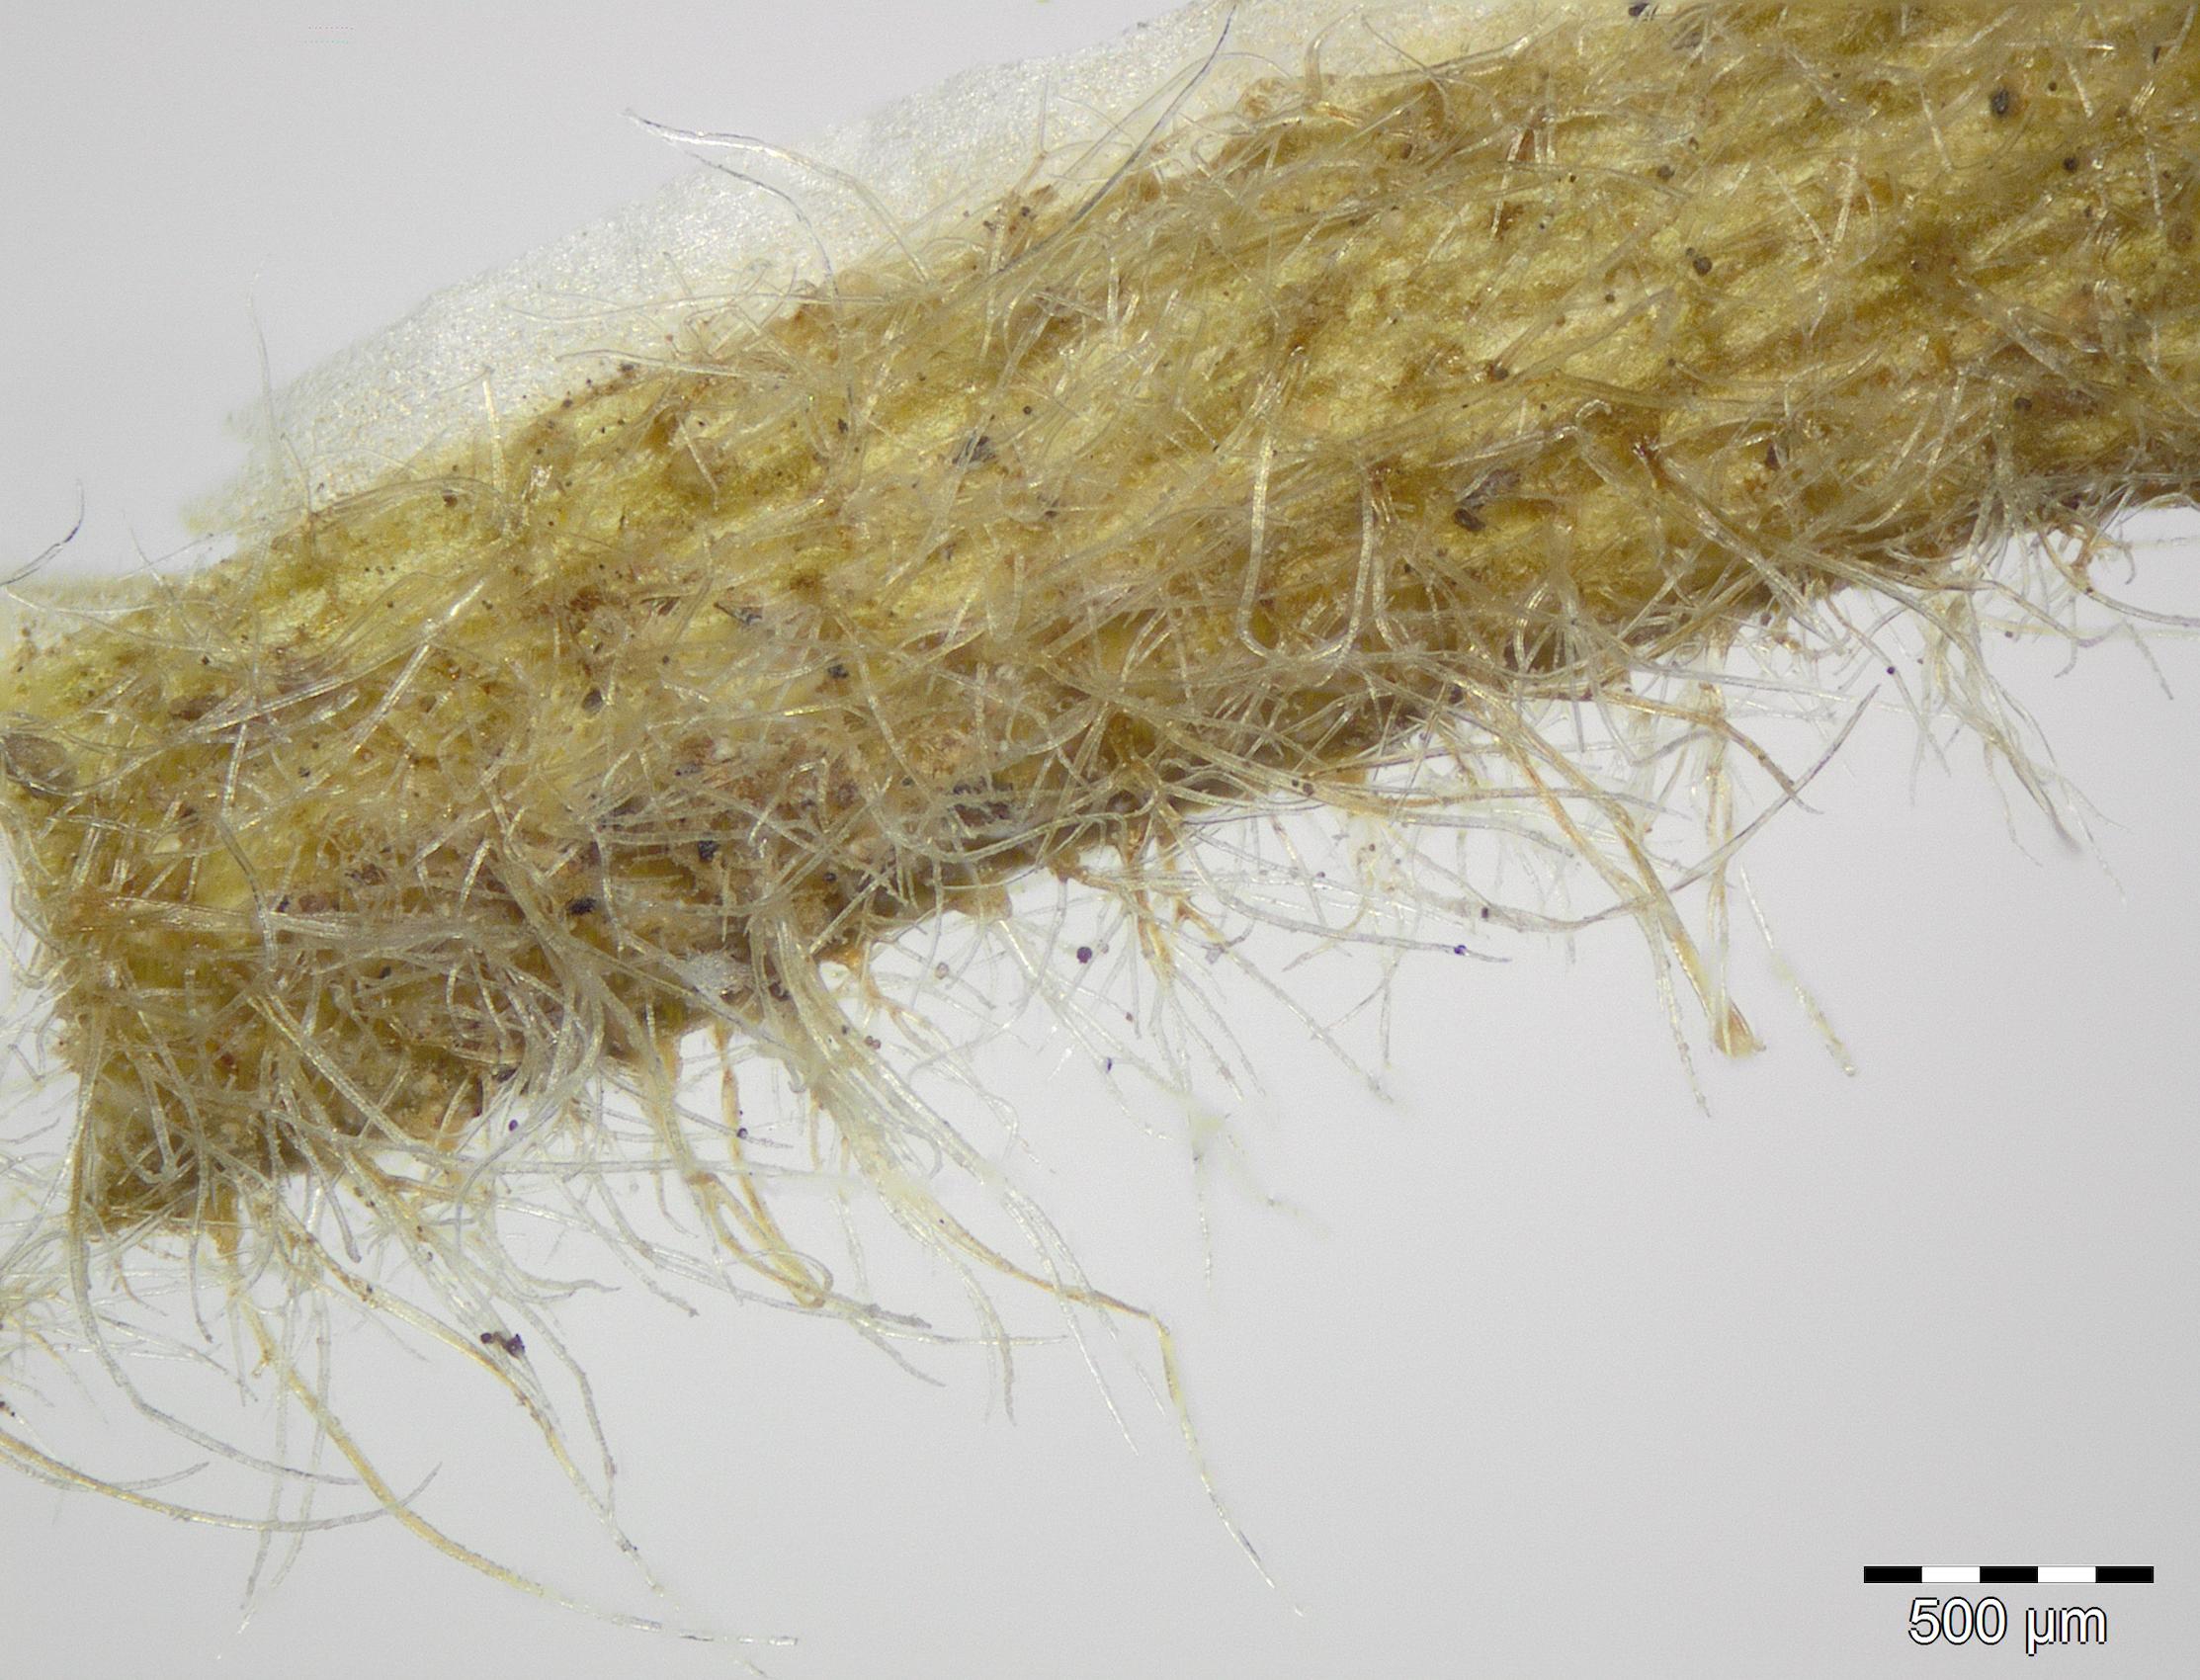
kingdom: Plantae
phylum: Tracheophyta
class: Magnoliopsida
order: Brassicales
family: Brassicaceae
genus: Erysimum
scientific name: Erysimum leucanthemum
